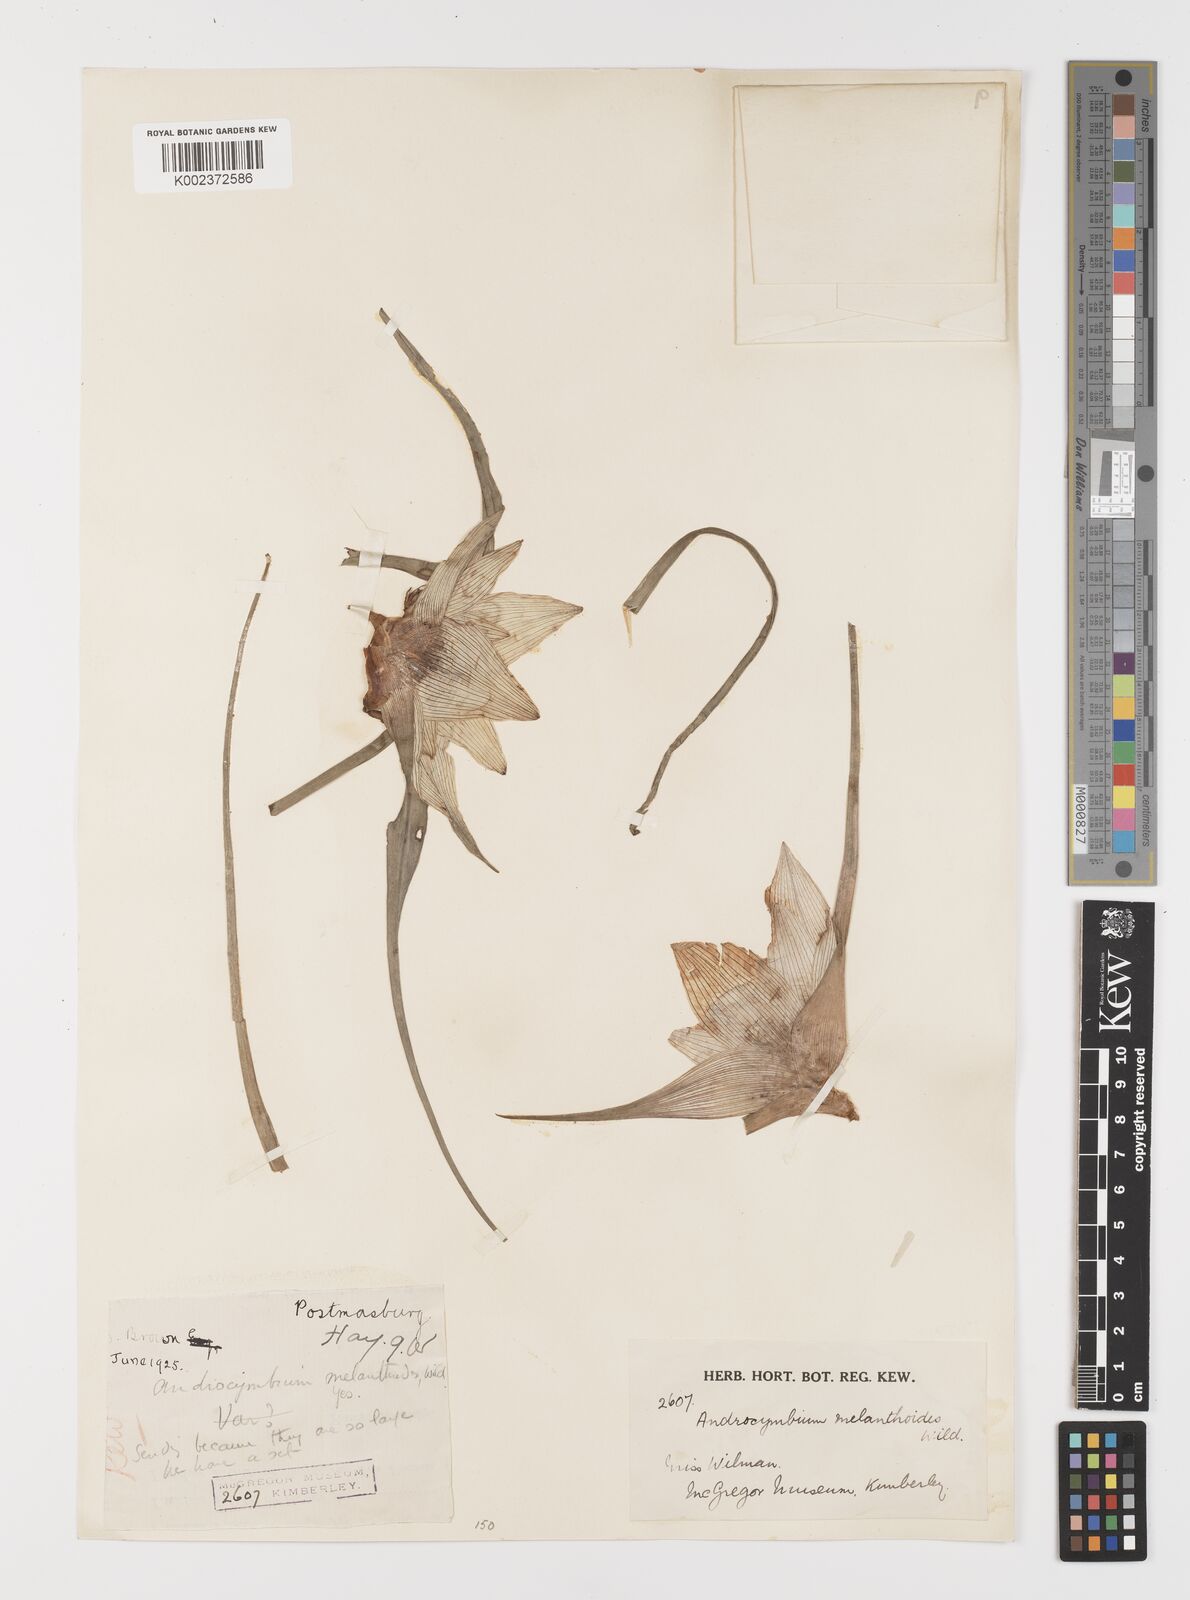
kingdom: Plantae
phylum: Tracheophyta
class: Liliopsida
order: Liliales
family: Colchicaceae
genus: Colchicum
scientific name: Colchicum melanthioides
